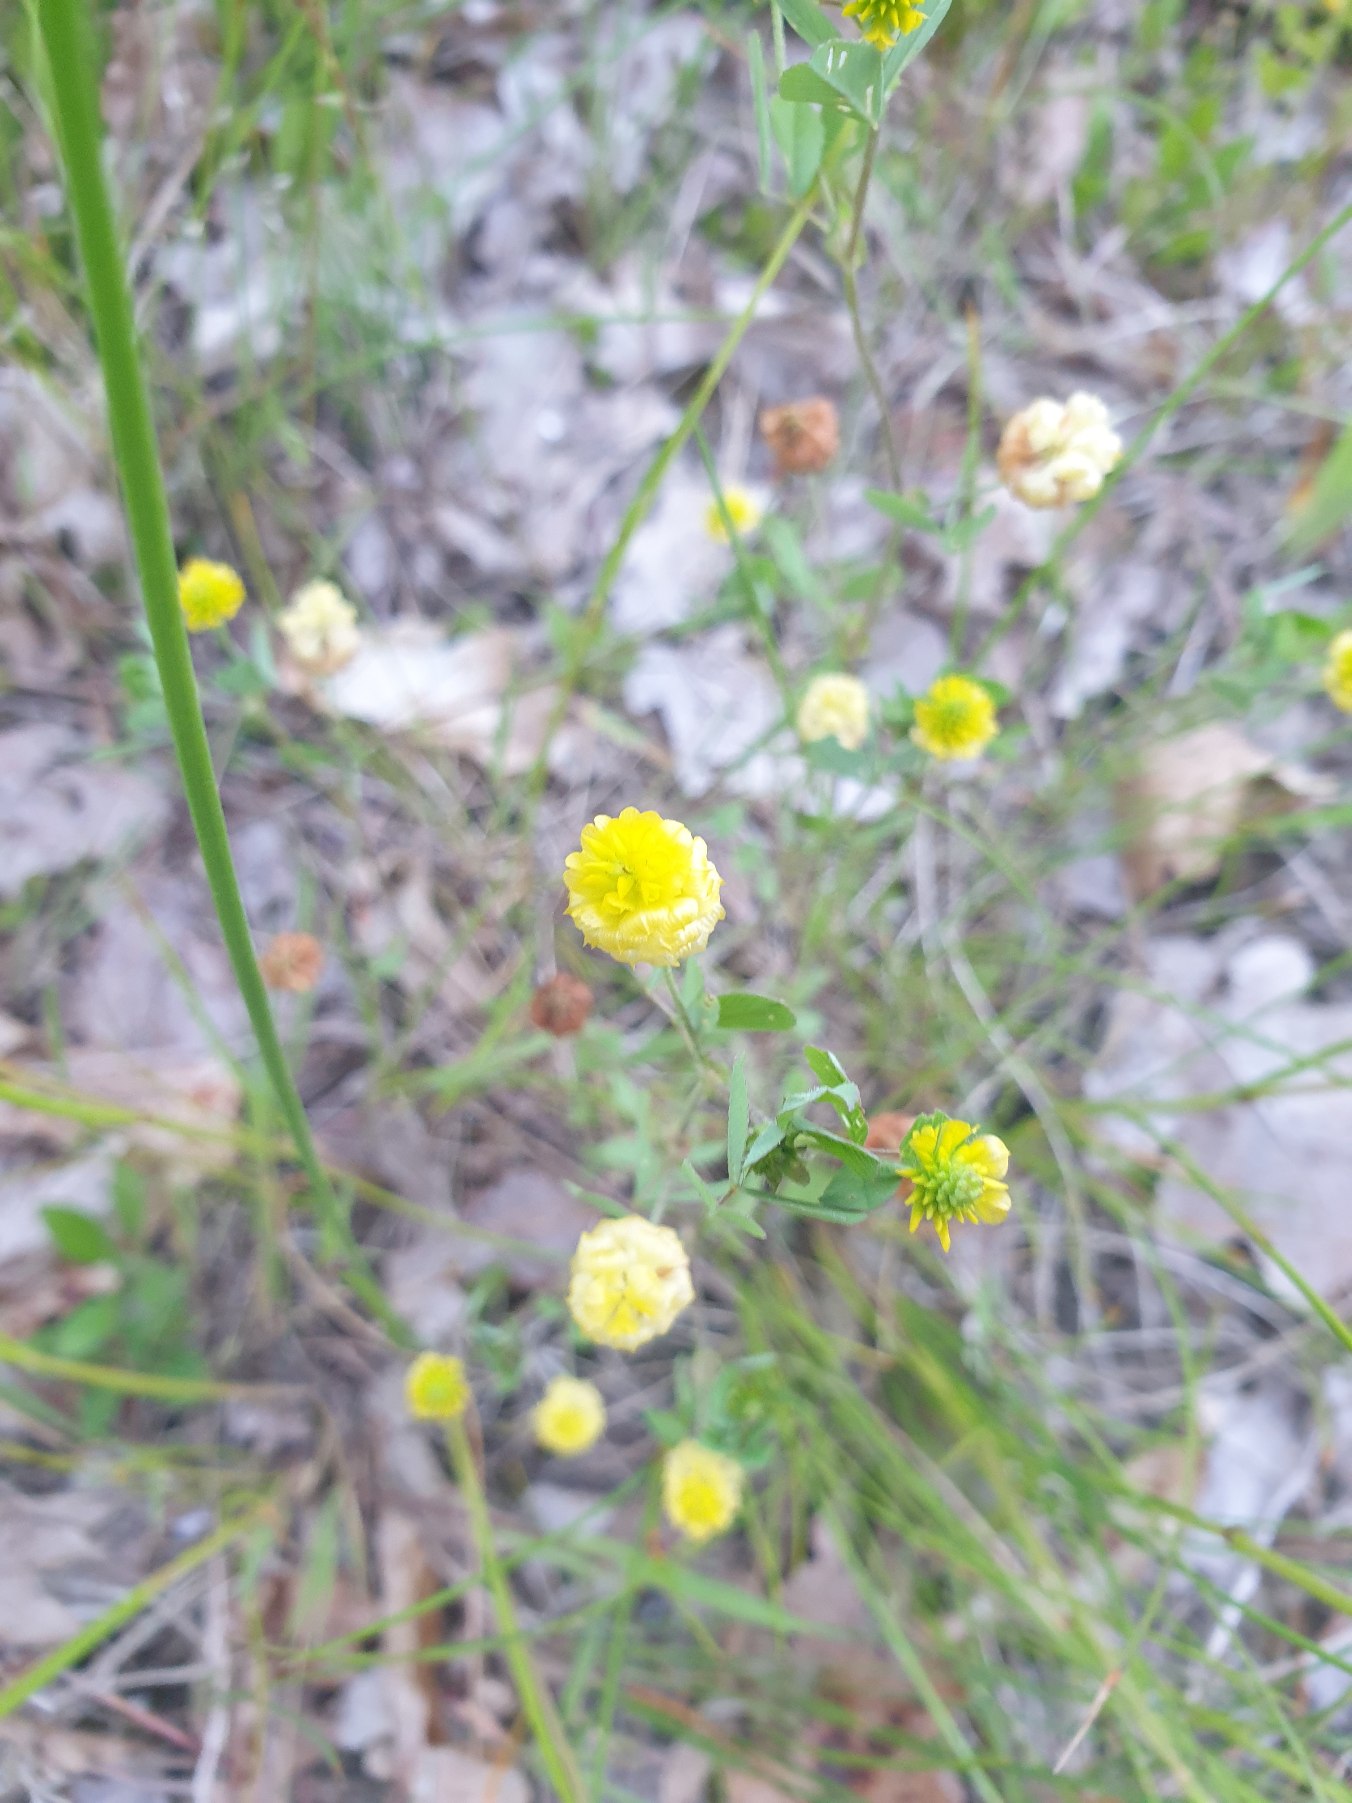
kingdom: Plantae
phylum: Tracheophyta
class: Magnoliopsida
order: Fabales
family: Fabaceae
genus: Trifolium
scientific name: Trifolium campestre
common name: Gul kløver
